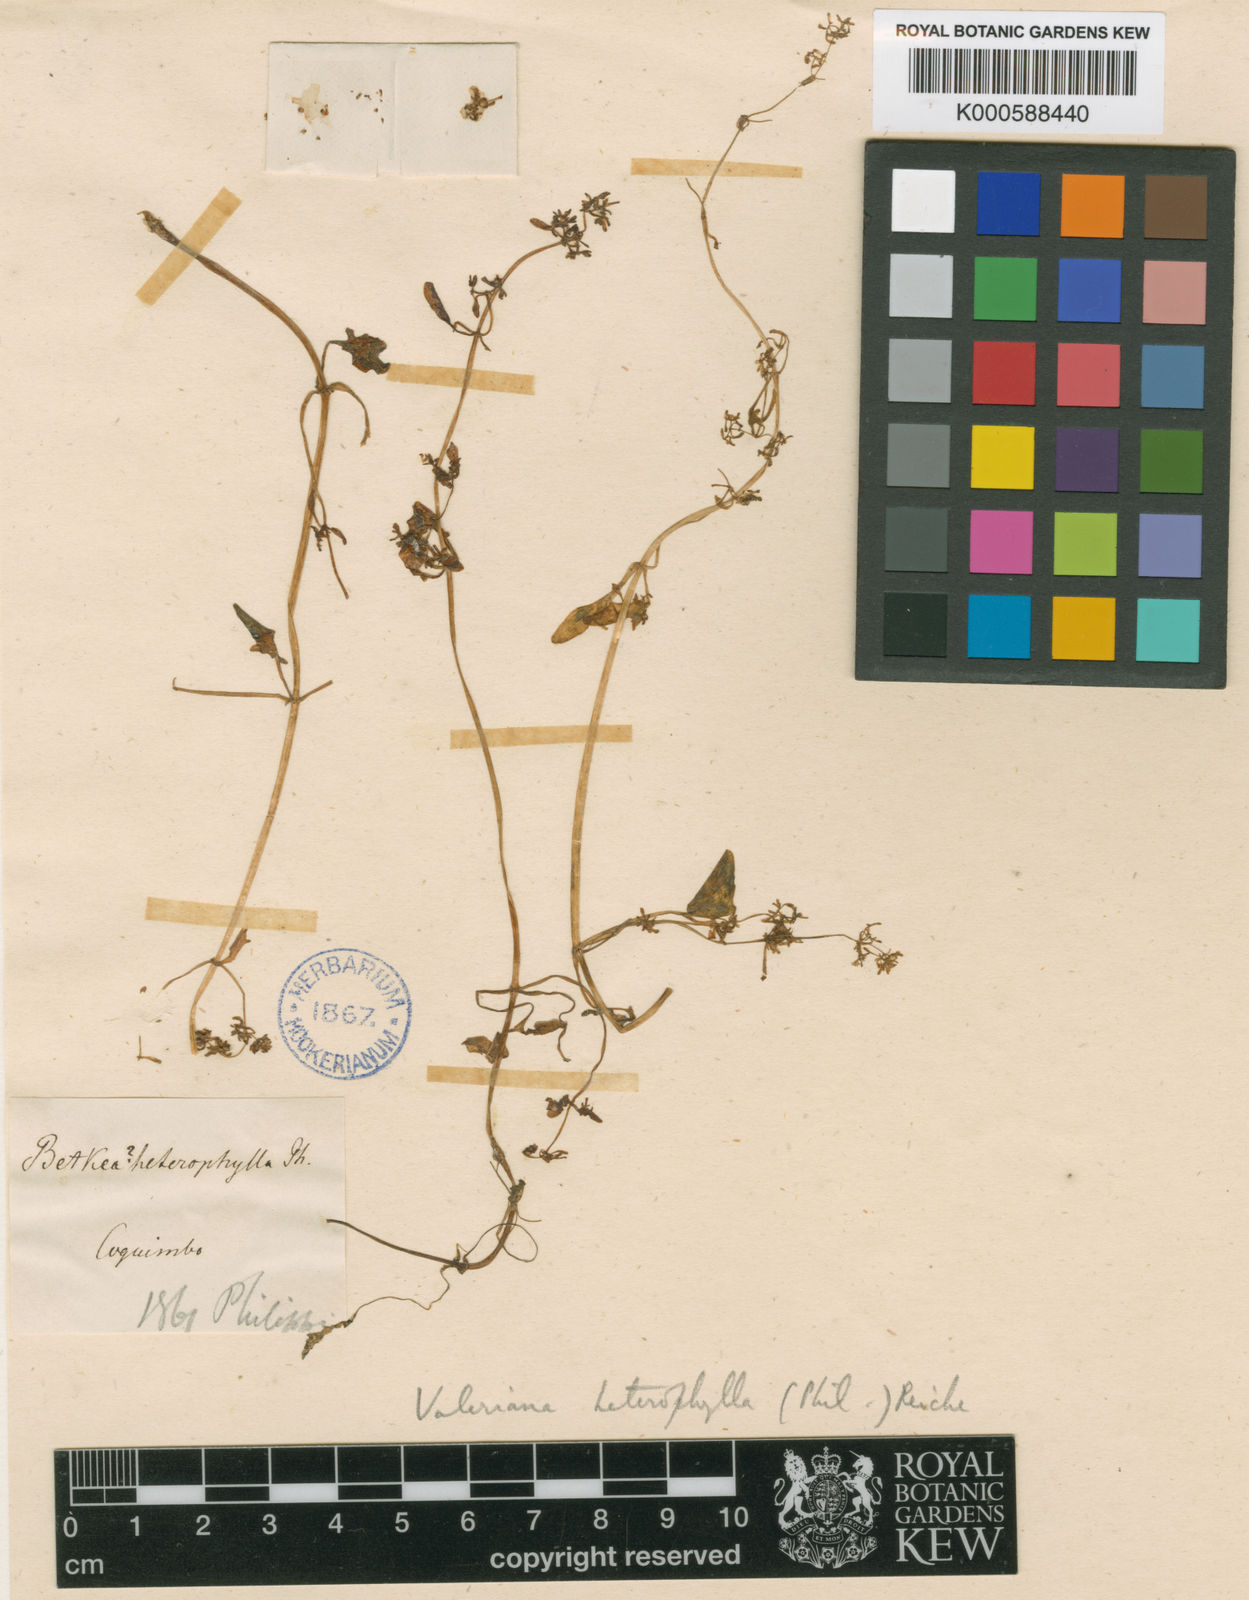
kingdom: Plantae
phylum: Tracheophyta
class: Magnoliopsida
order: Dipsacales
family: Caprifoliaceae
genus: Valeriana
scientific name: Valeriana altaica
